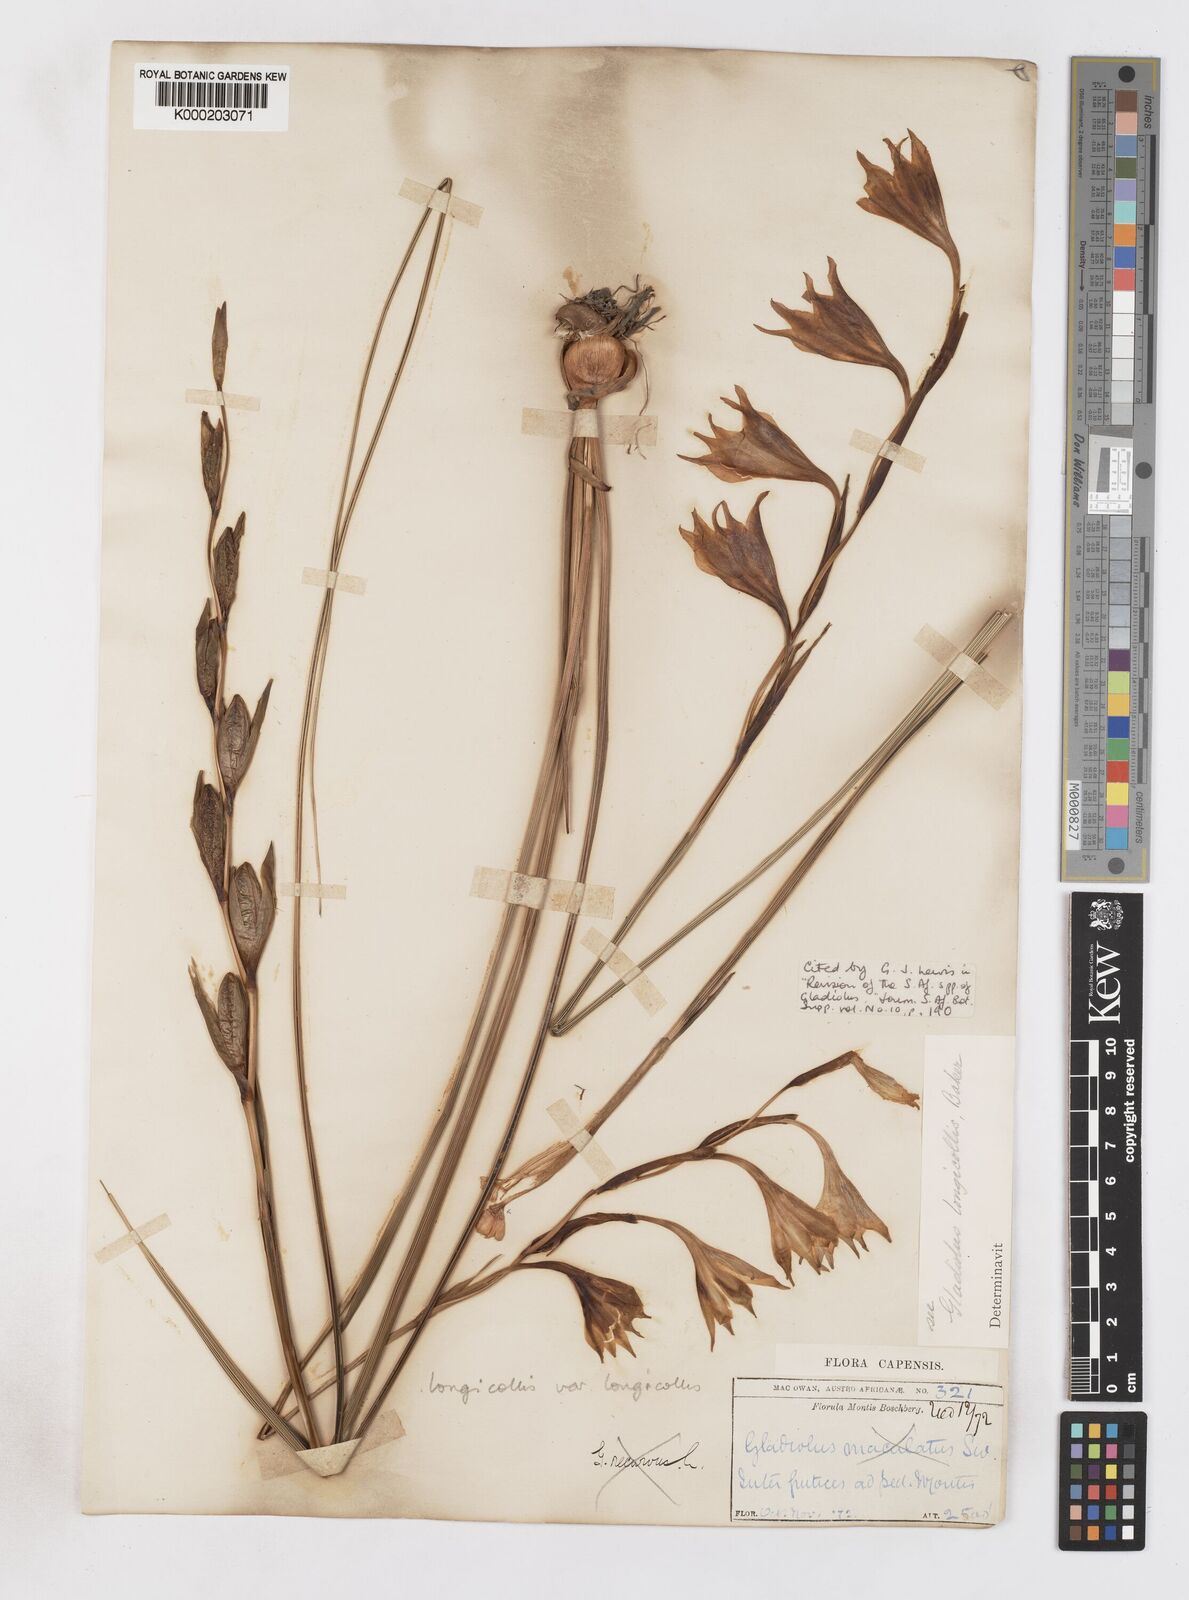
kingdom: Plantae
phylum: Tracheophyta
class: Liliopsida
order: Asparagales
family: Iridaceae
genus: Gladiolus
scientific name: Gladiolus longicollis
